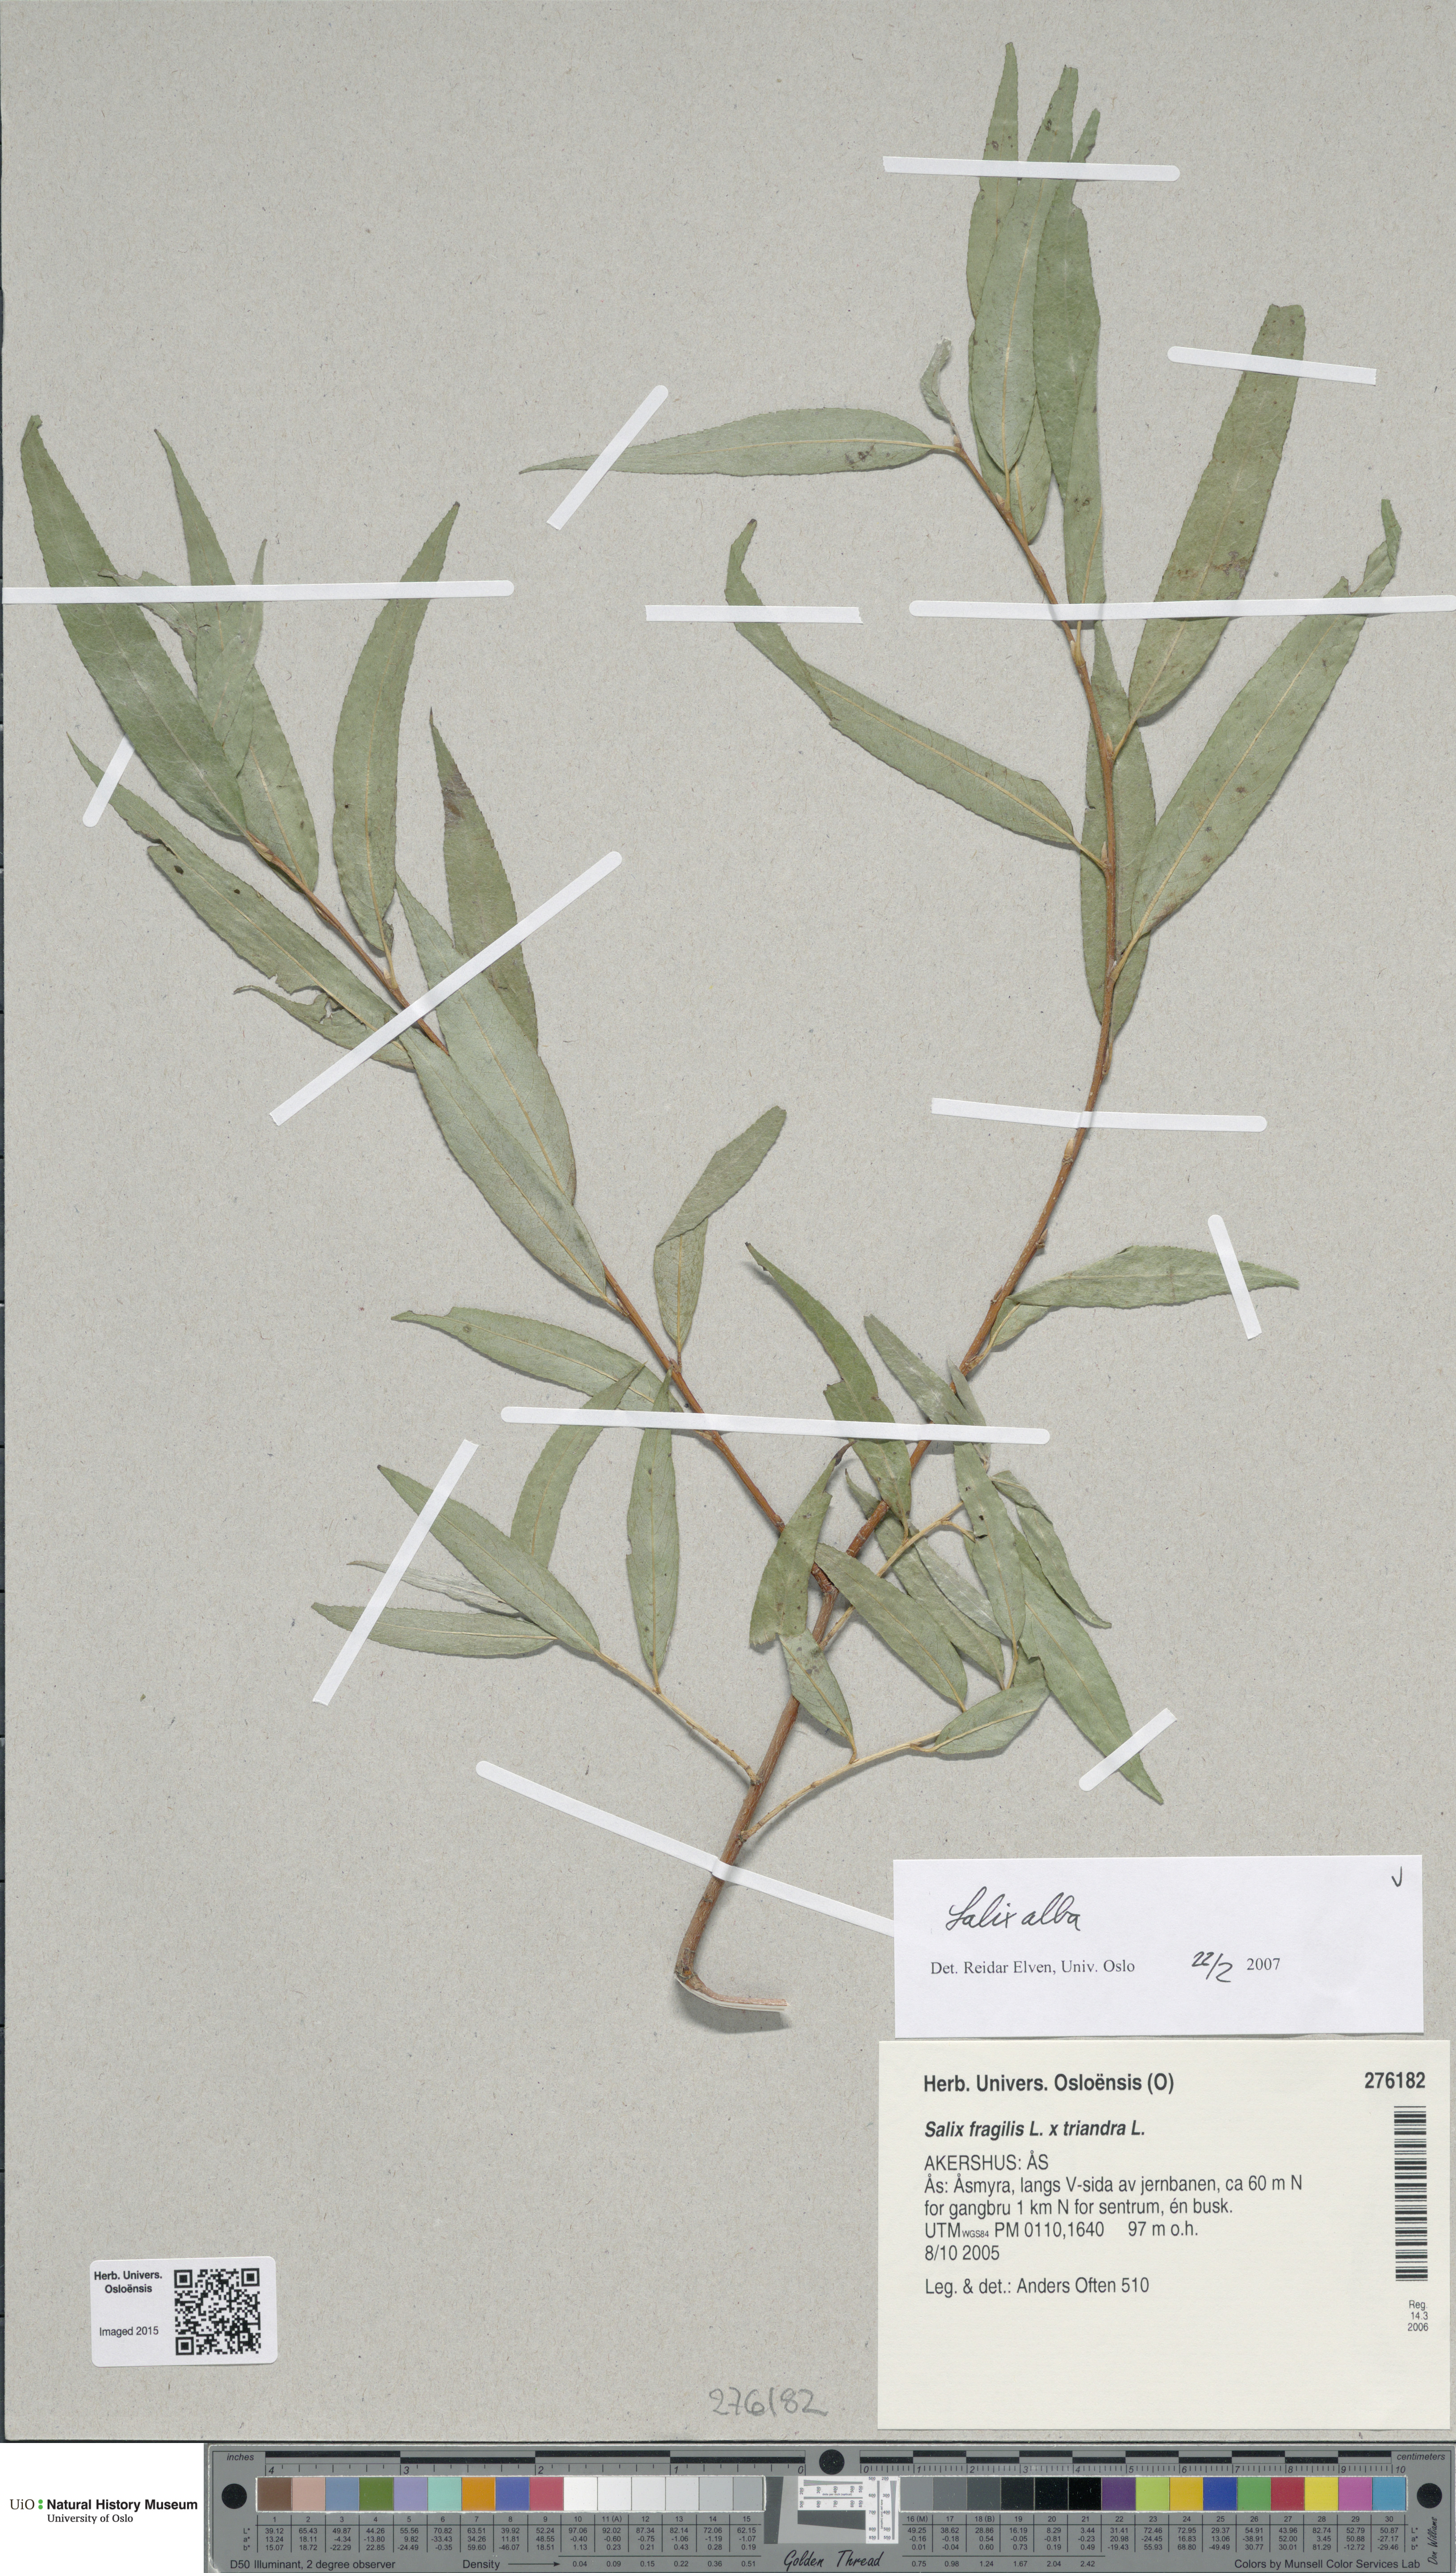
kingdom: Plantae
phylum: Tracheophyta
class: Magnoliopsida
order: Malpighiales
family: Salicaceae
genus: Salix
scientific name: Salix alba
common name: White willow
